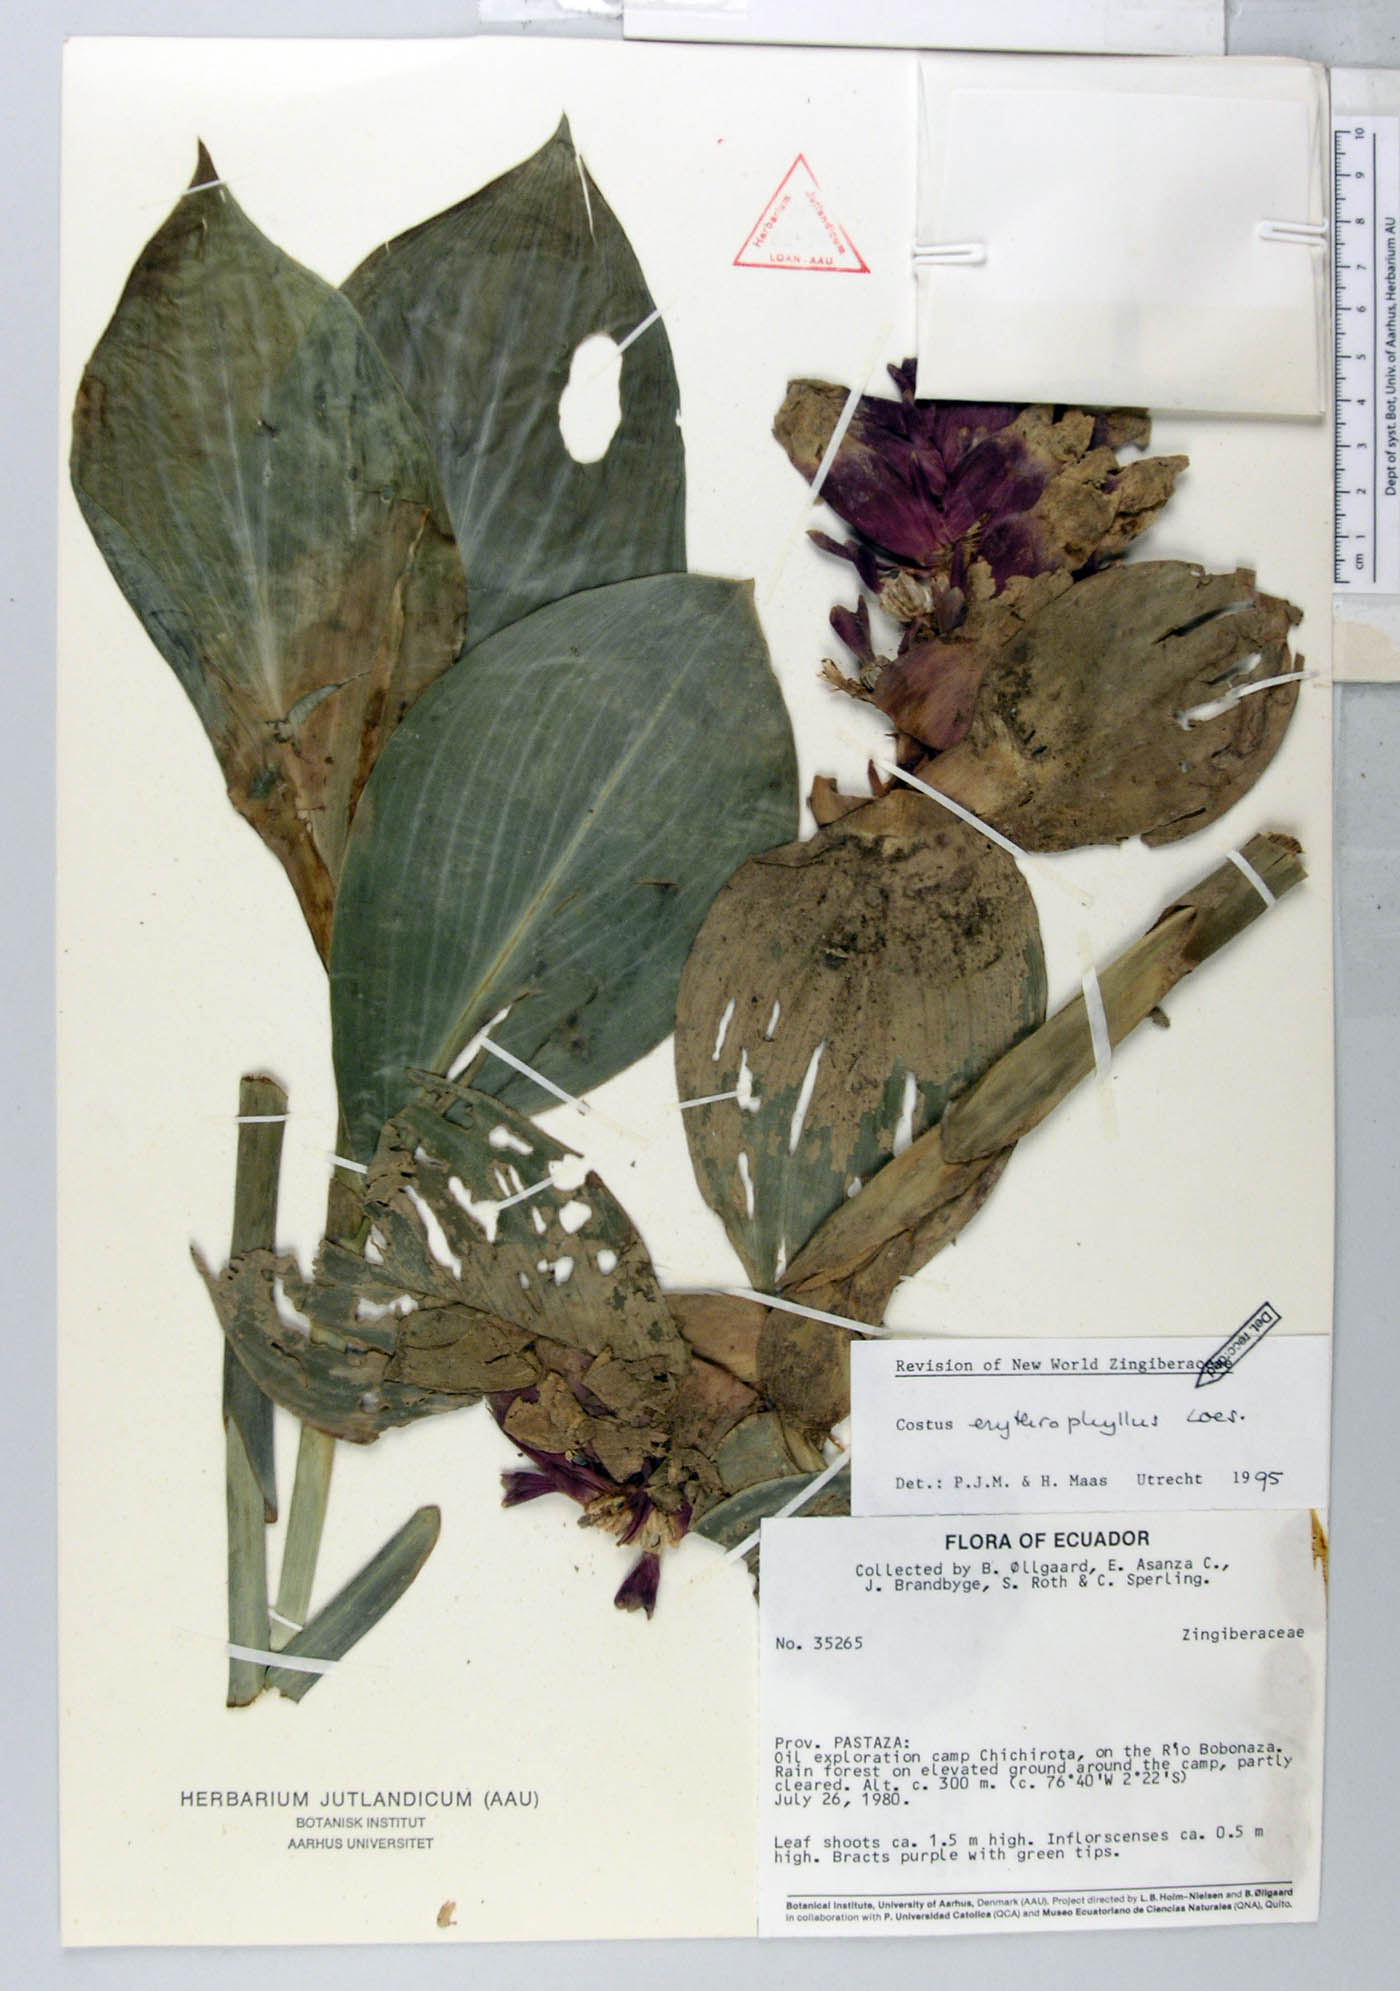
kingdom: Plantae
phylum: Tracheophyta
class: Liliopsida
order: Zingiberales
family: Costaceae
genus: Costus
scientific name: Costus erythrophyllus
